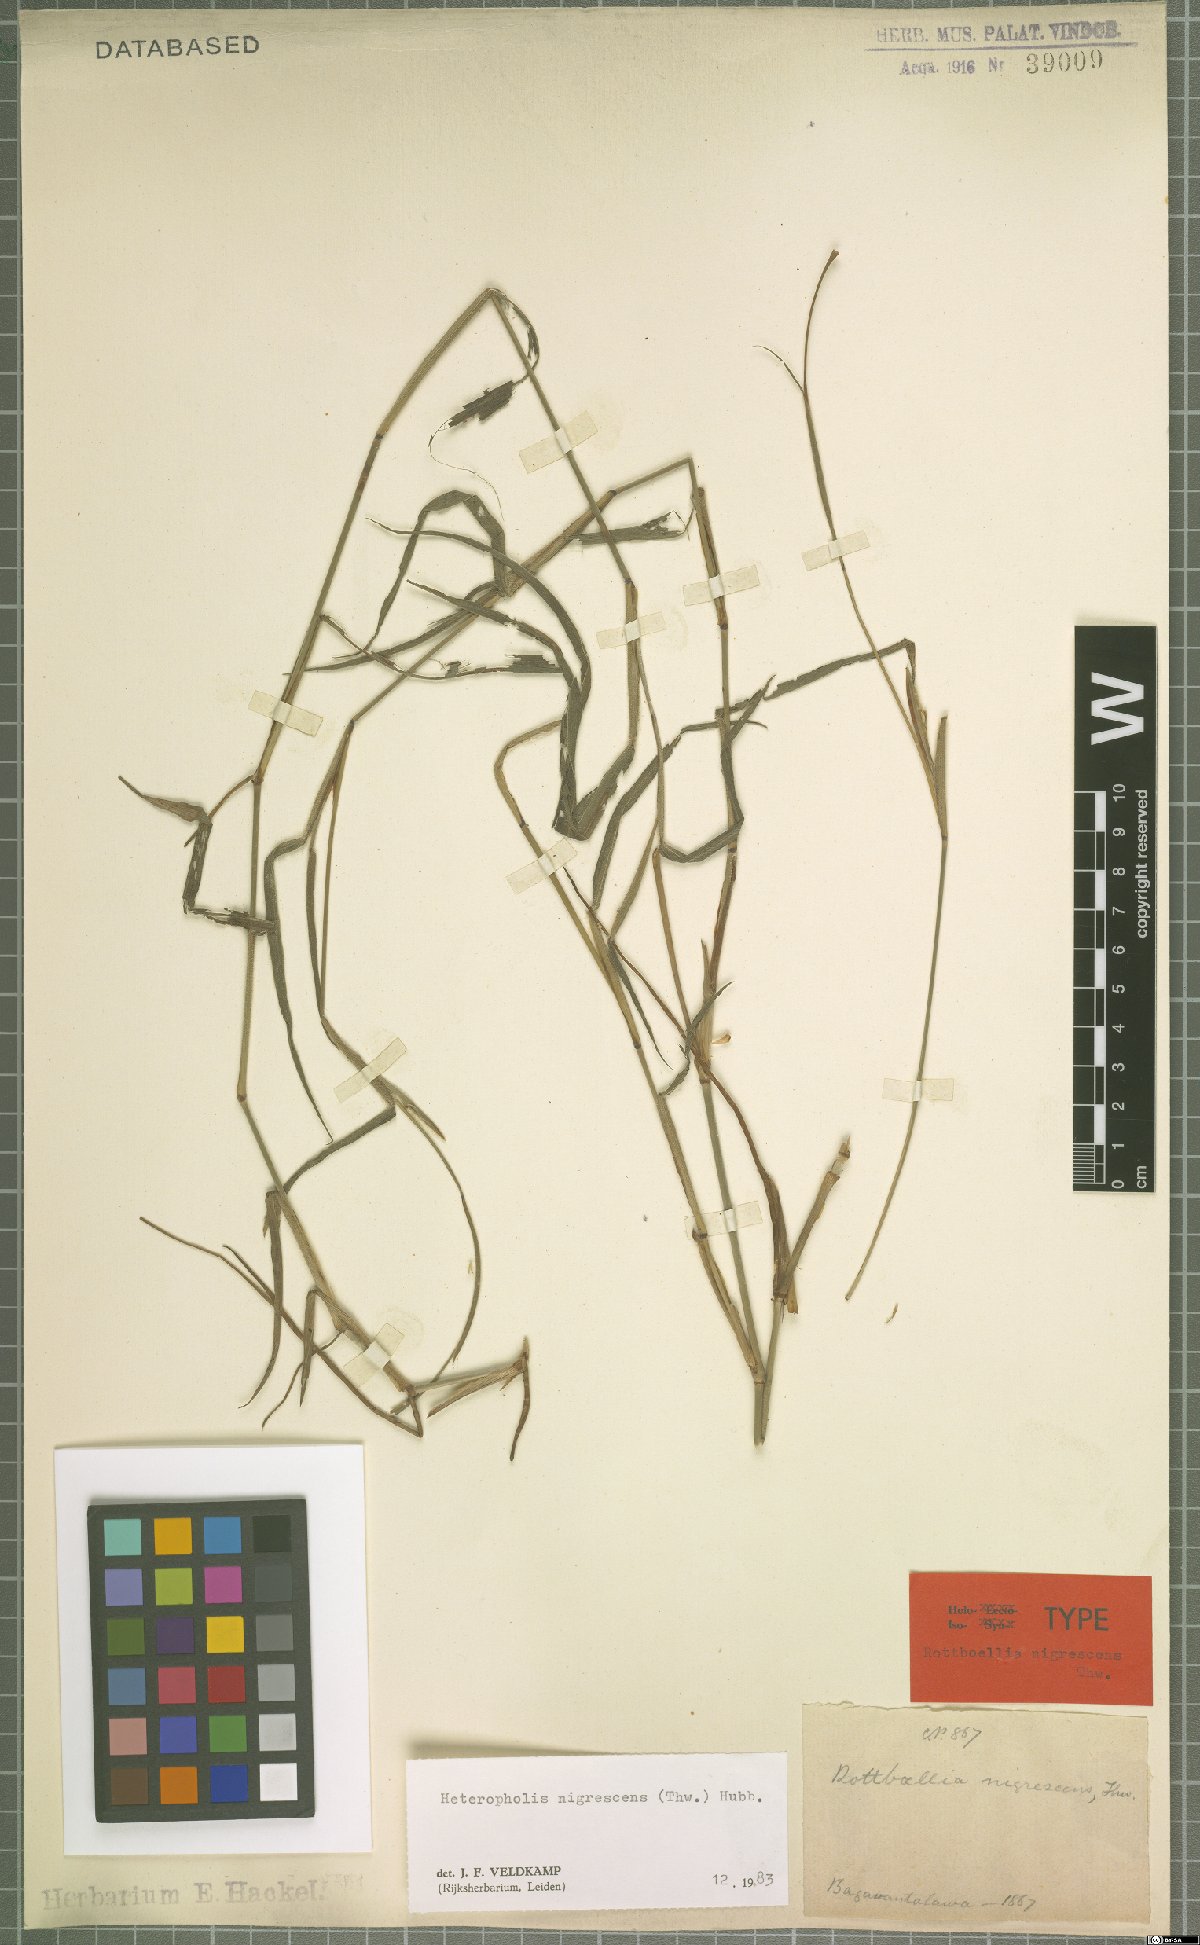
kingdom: Plantae
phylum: Tracheophyta
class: Liliopsida
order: Poales
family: Poaceae
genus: Heteropholis
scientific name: Heteropholis nigrescens
